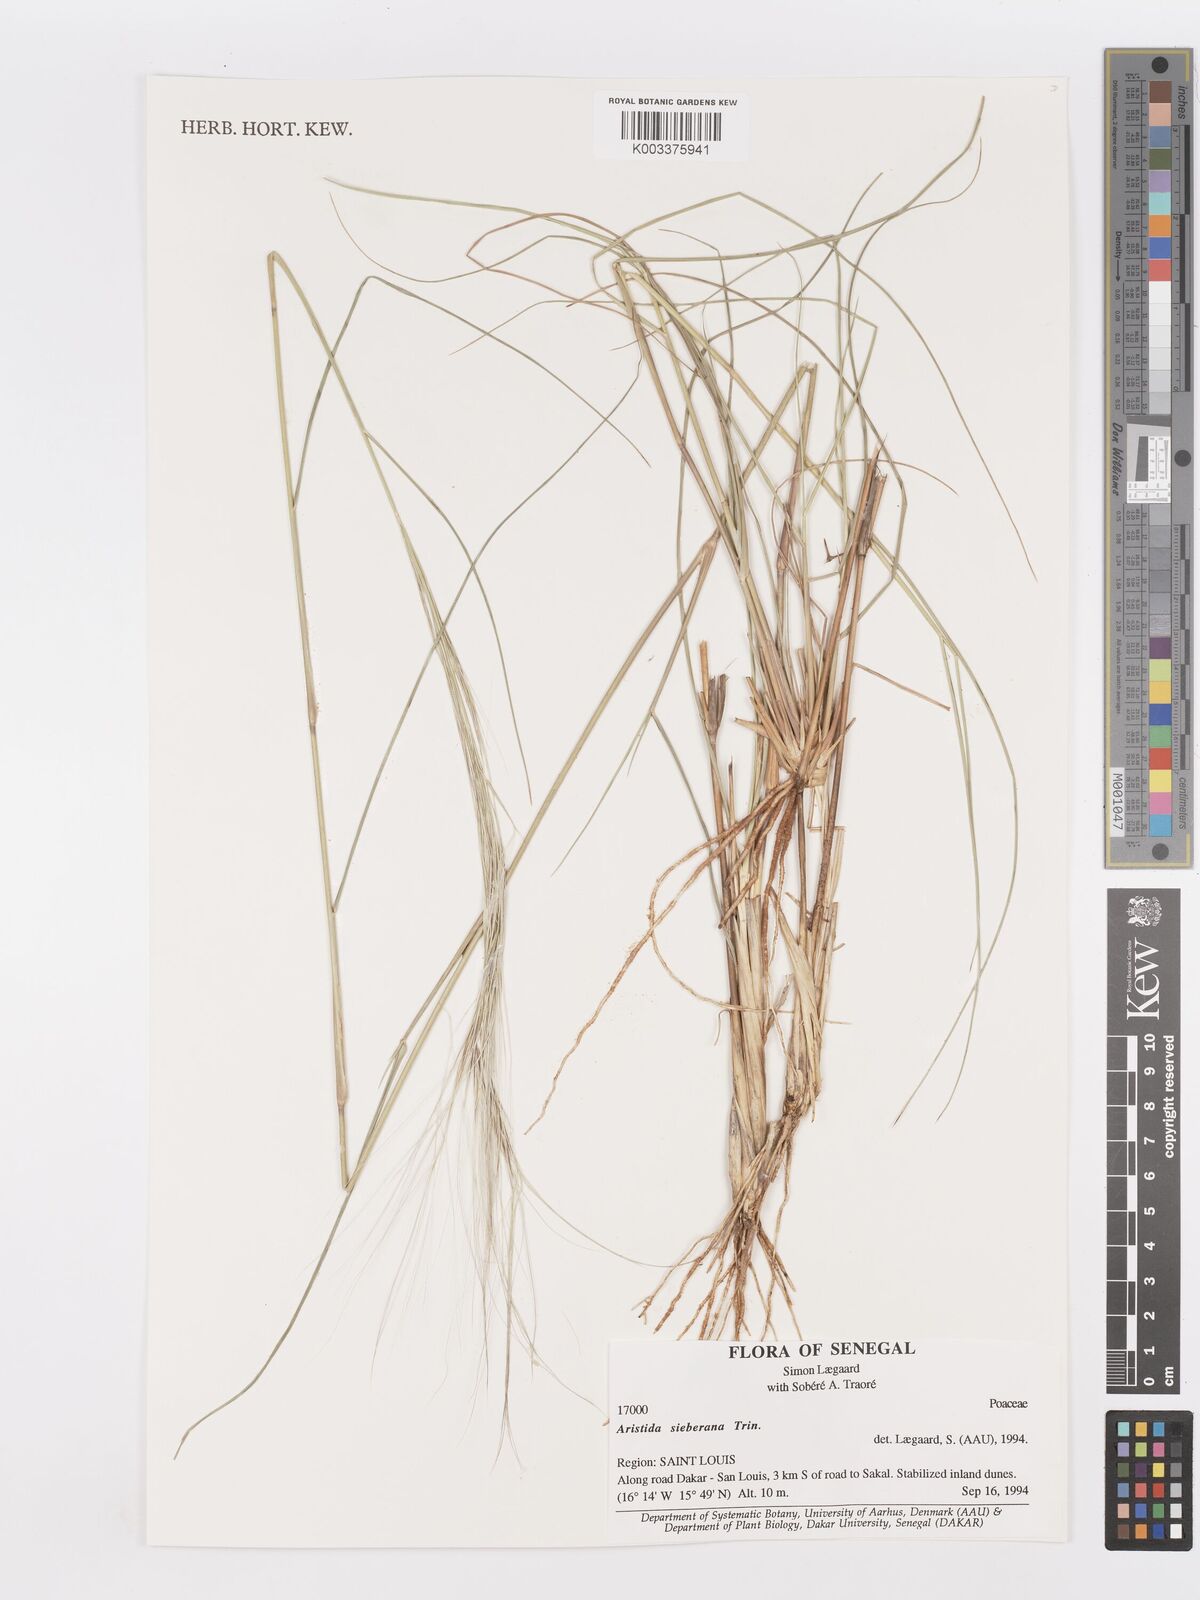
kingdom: Plantae
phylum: Tracheophyta
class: Liliopsida
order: Poales
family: Poaceae
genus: Aristida
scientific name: Aristida sieberiana
